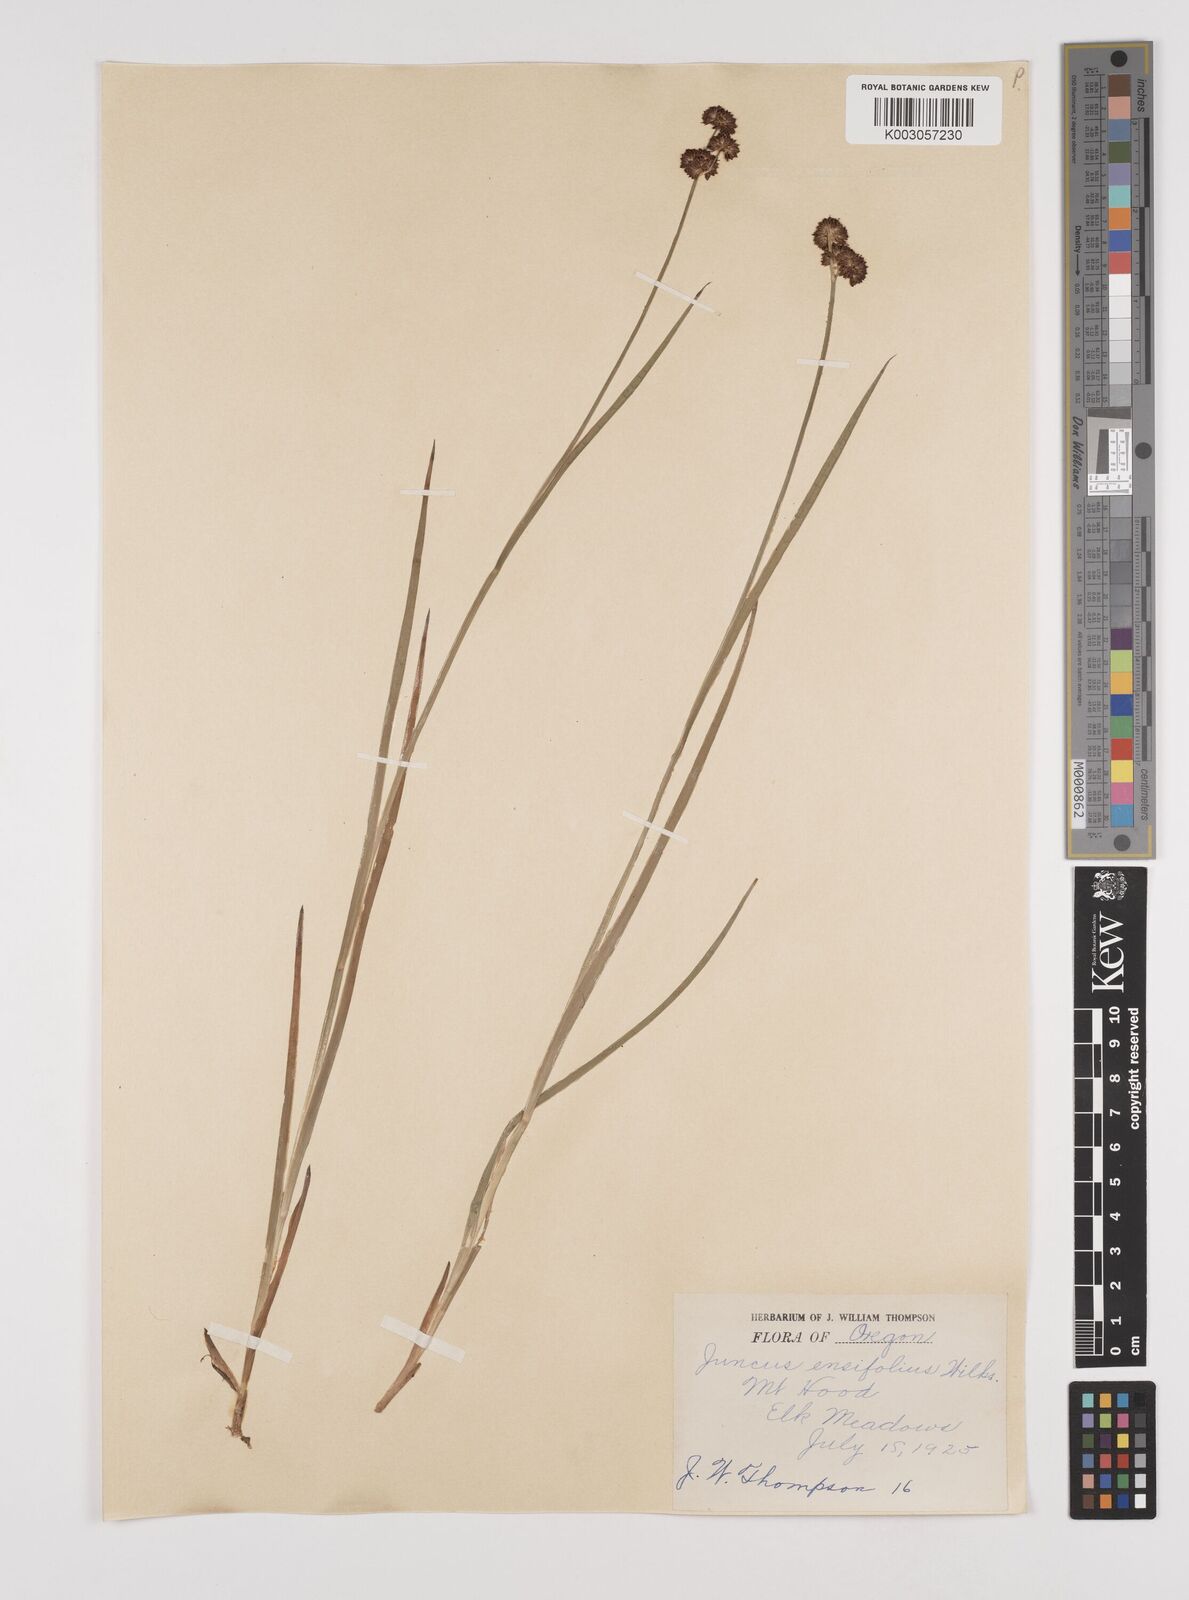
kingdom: Plantae
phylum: Tracheophyta
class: Liliopsida
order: Poales
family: Juncaceae
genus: Juncus
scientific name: Juncus ensifolius
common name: Sword-leaved rush
